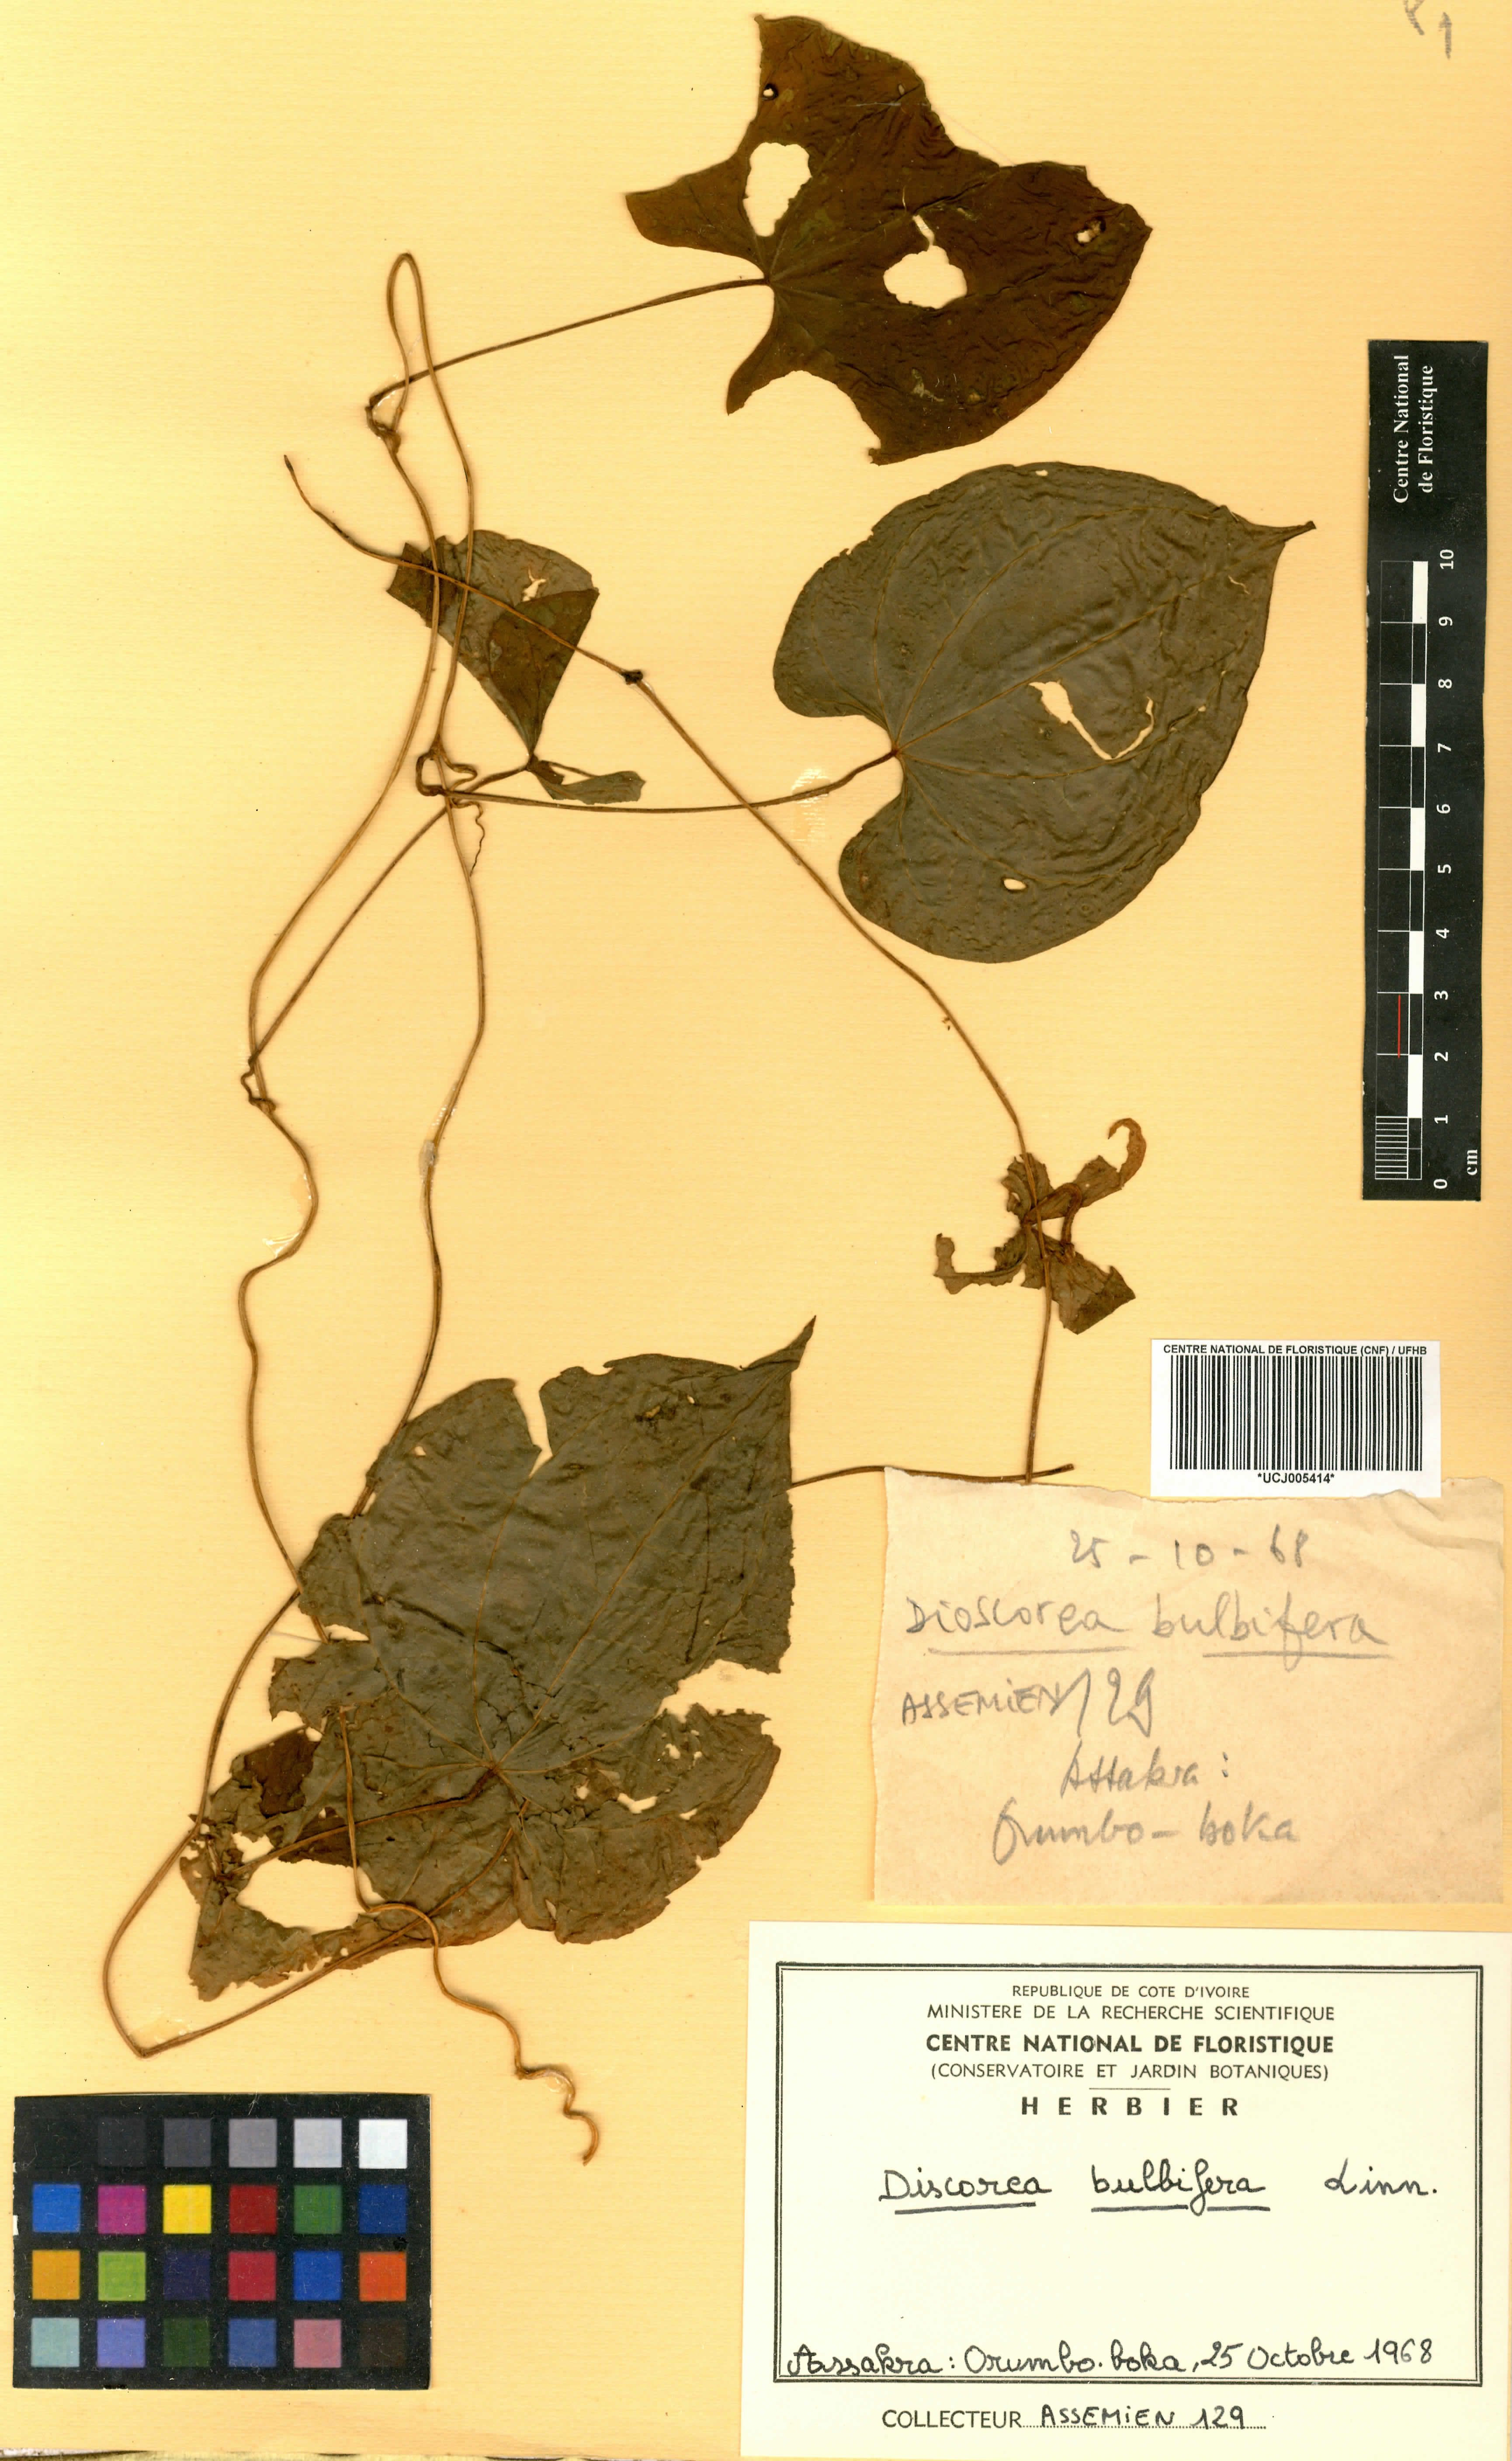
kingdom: Plantae
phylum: Tracheophyta
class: Liliopsida
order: Dioscoreales
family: Dioscoreaceae
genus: Dioscorea
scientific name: Dioscorea bulbifera
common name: Air yam
